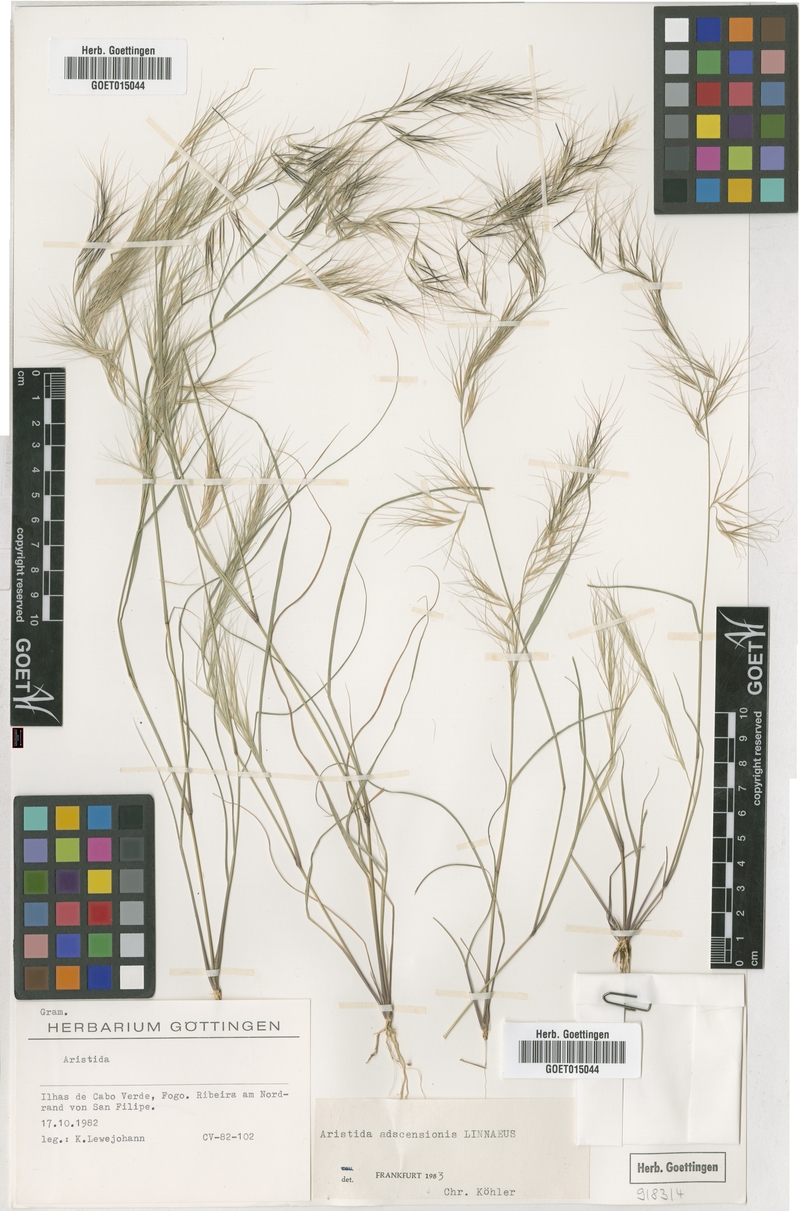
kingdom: Plantae
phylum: Tracheophyta
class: Liliopsida
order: Poales
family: Poaceae
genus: Aristida
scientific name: Aristida adscensionis
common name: Sixweeks threeawn
